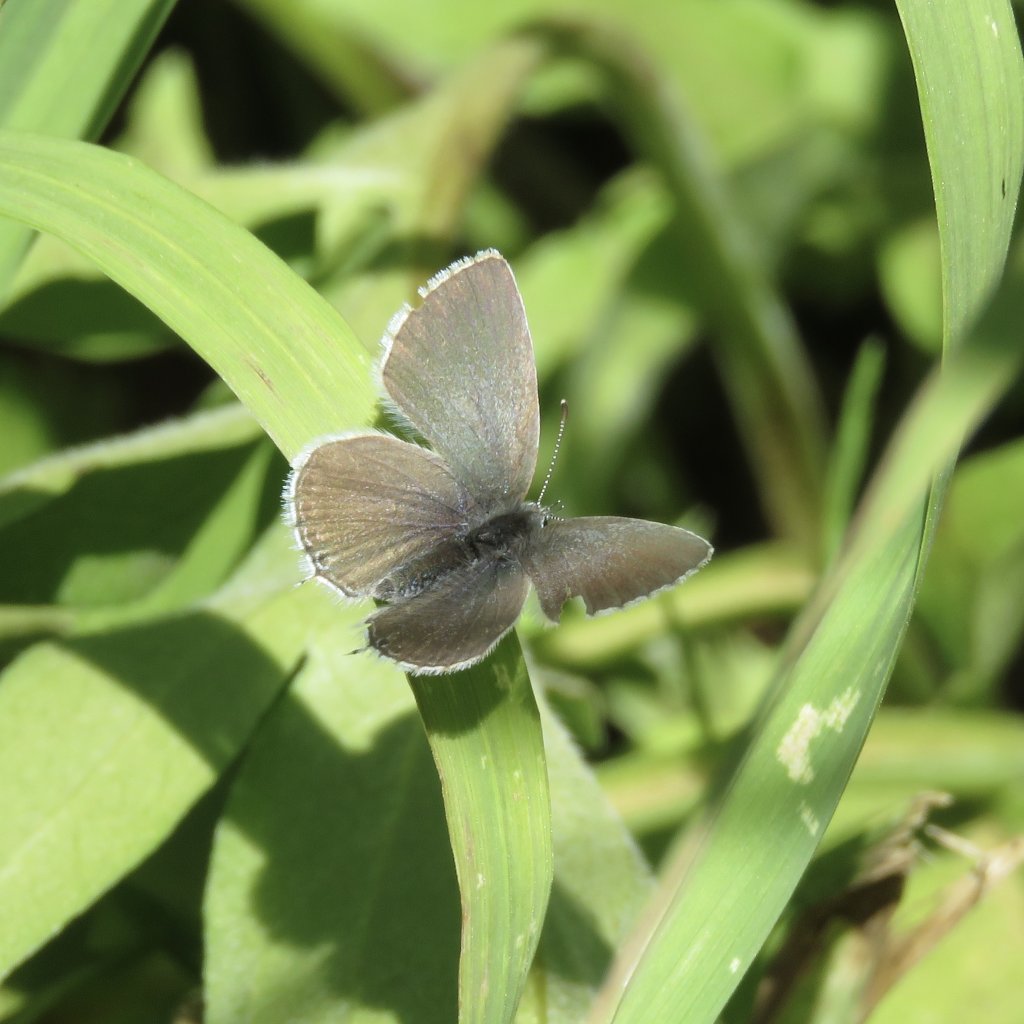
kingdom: Animalia
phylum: Arthropoda
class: Insecta
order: Lepidoptera
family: Lycaenidae
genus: Elkalyce
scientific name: Elkalyce amyntula
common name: Western Tailed-Blue
